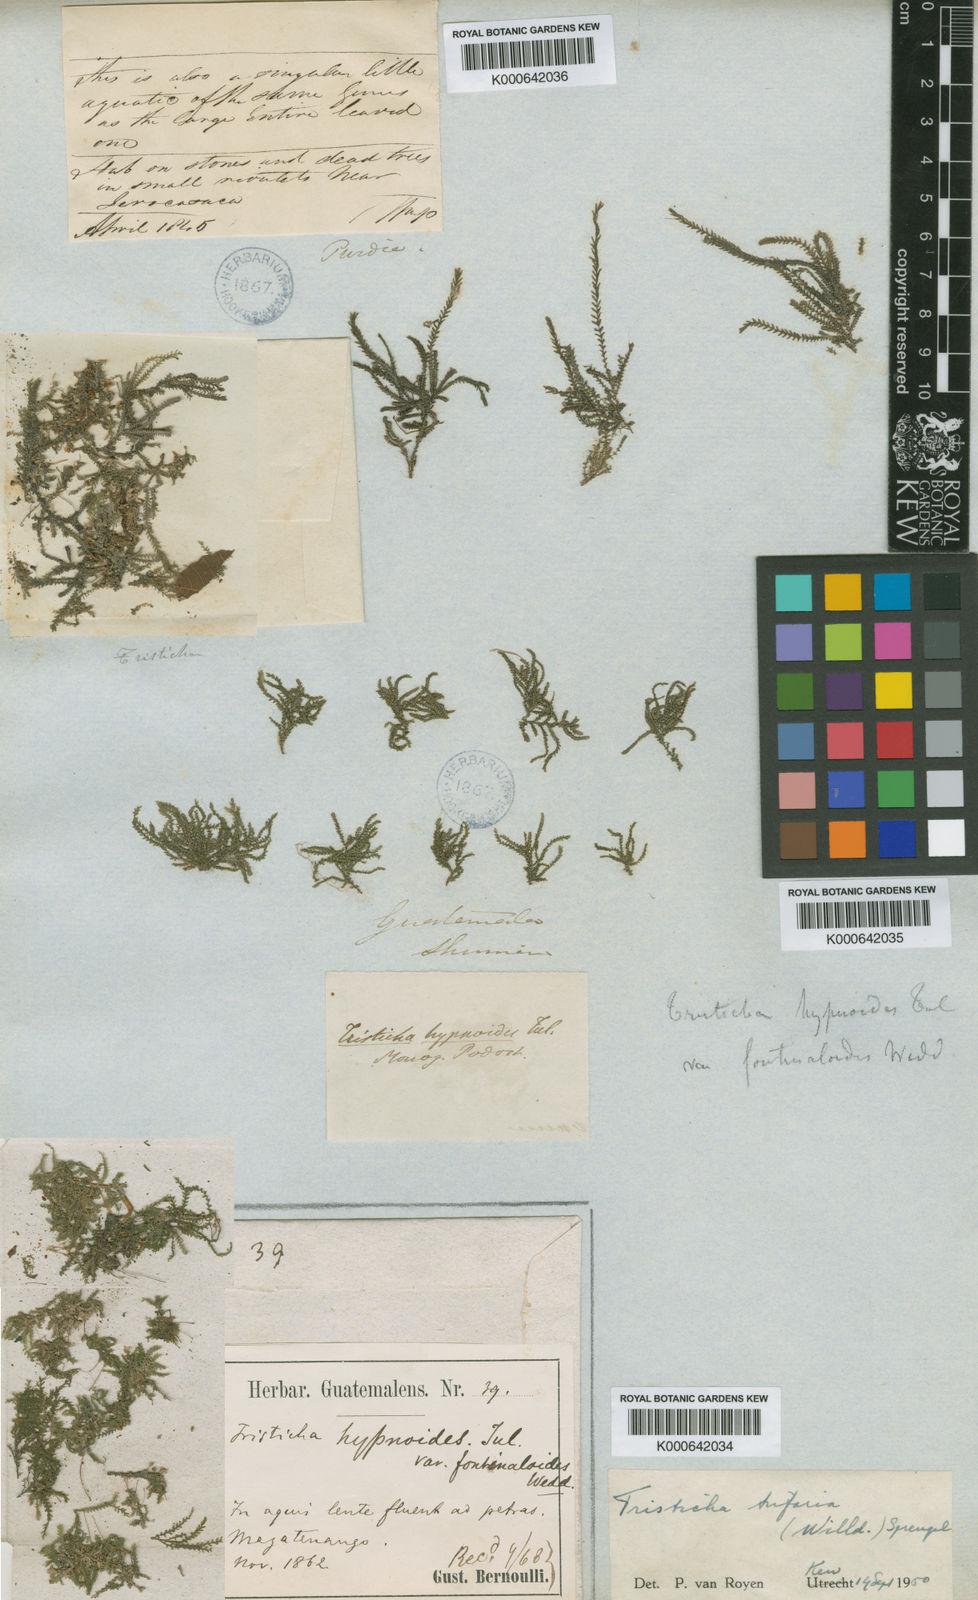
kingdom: Plantae
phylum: Tracheophyta
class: Magnoliopsida
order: Malpighiales
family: Podostemaceae
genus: Tristicha
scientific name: Tristicha trifaria
